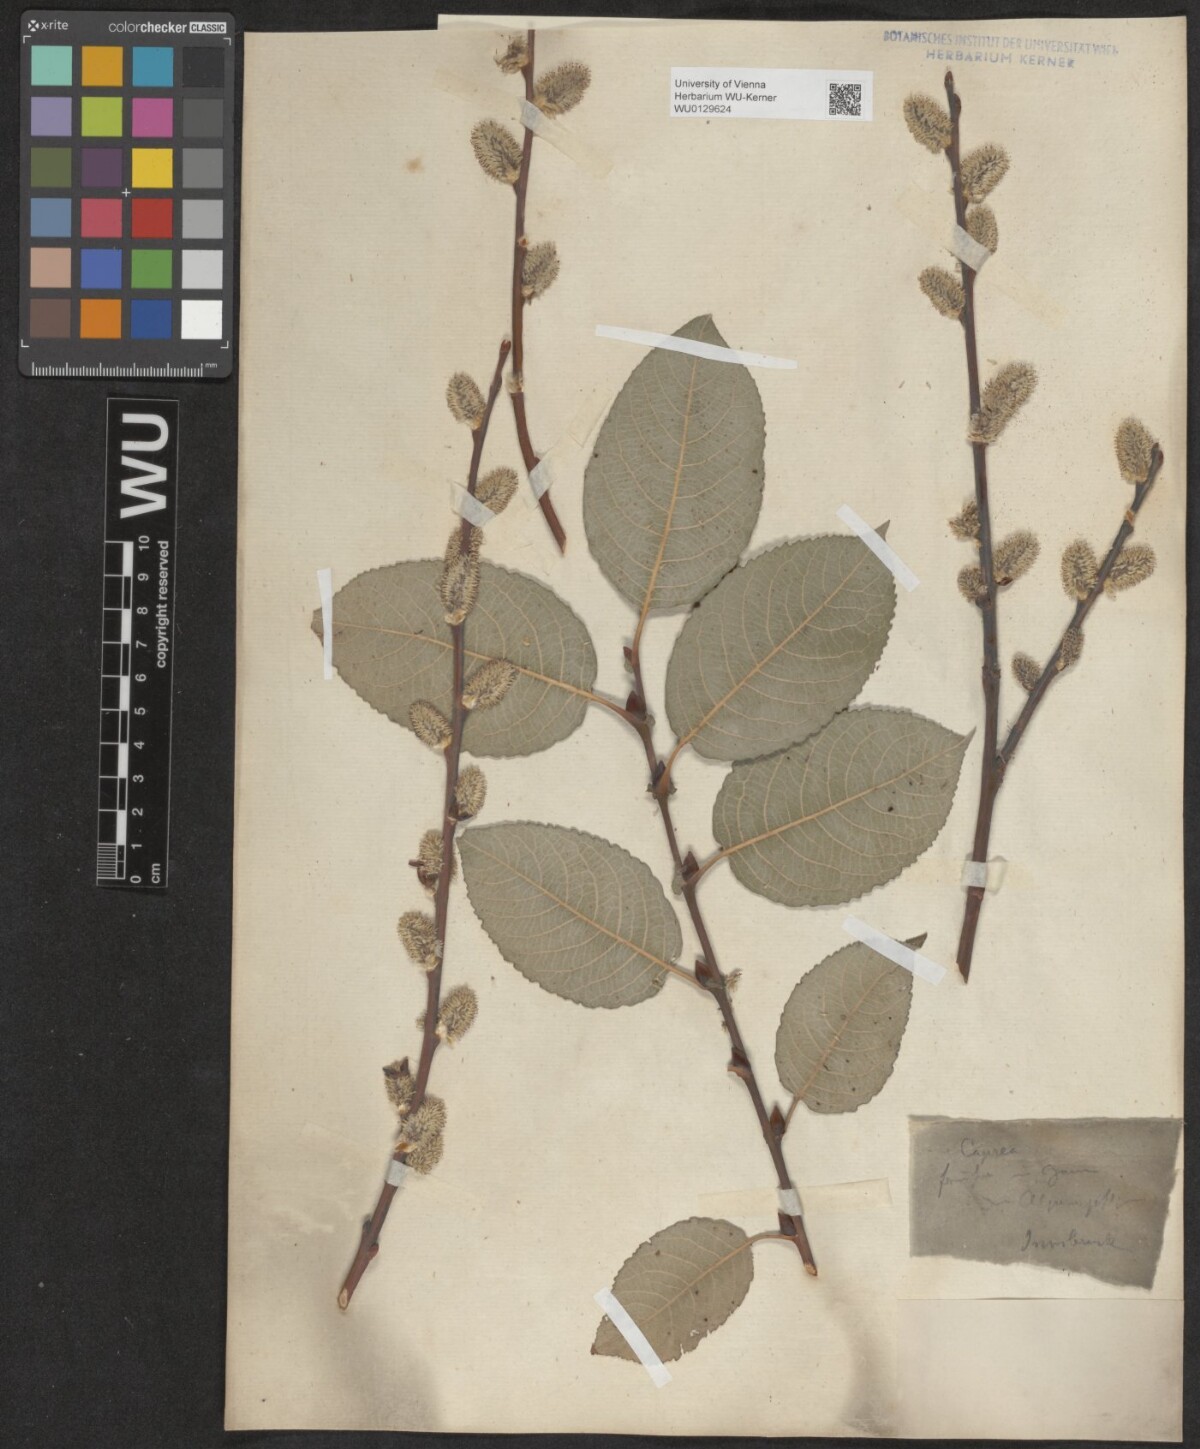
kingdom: Plantae
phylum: Tracheophyta
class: Magnoliopsida
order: Malpighiales
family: Salicaceae
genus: Salix
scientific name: Salix caprea
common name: Goat willow
